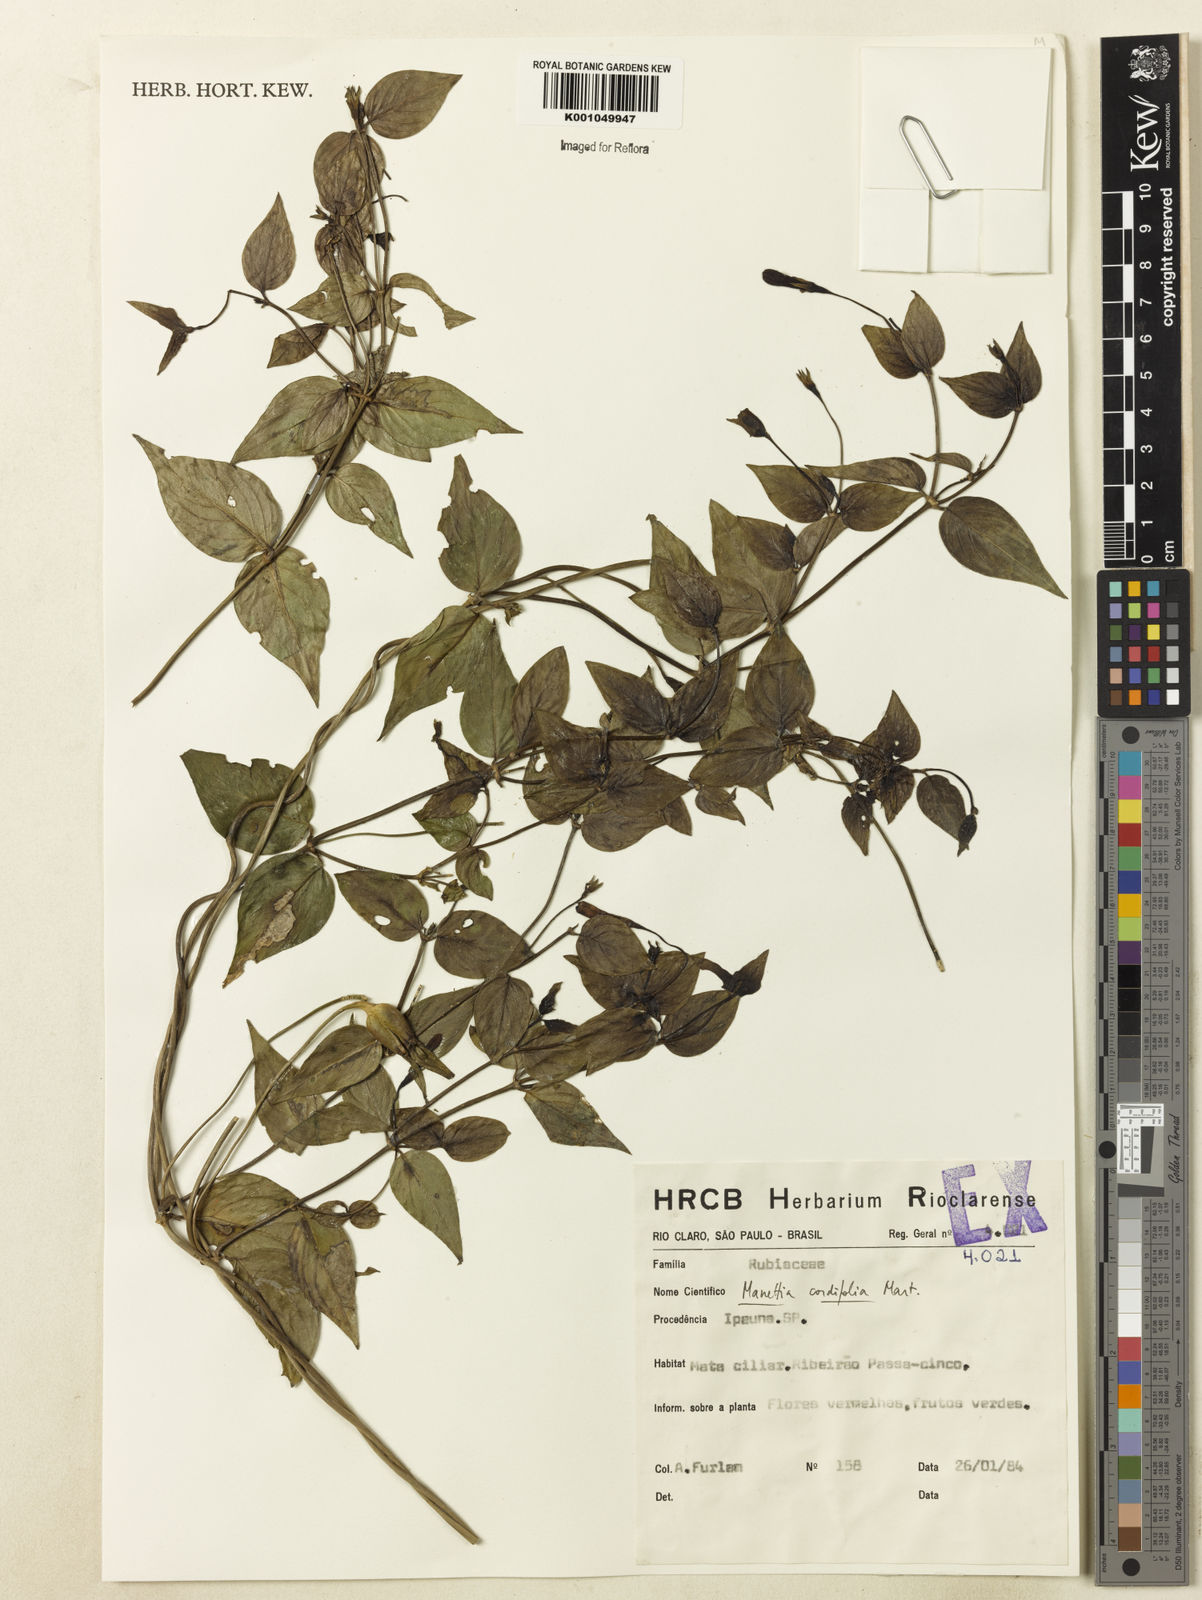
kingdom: Plantae
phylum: Tracheophyta
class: Magnoliopsida
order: Gentianales
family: Rubiaceae
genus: Manettia
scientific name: Manettia cordifolia
